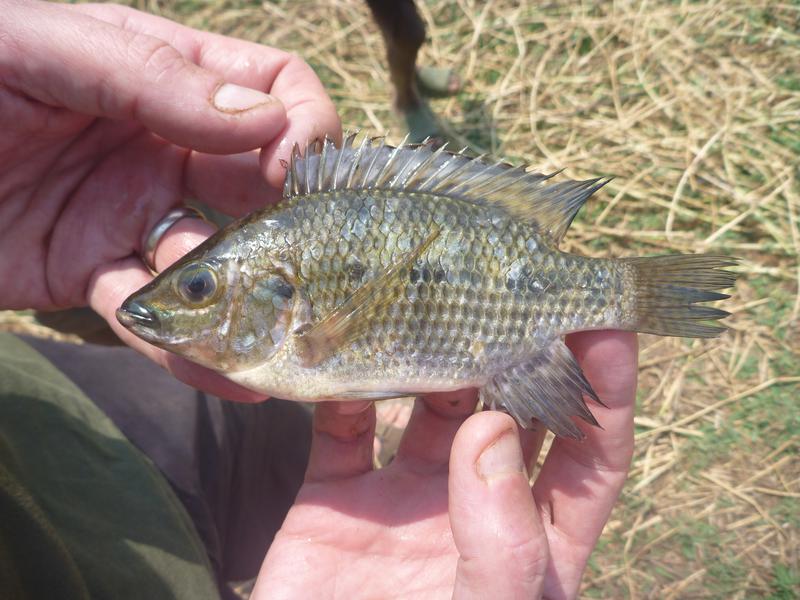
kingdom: Animalia
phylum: Chordata
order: Perciformes
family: Cichlidae
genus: Oreochromis
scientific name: Oreochromis karomo
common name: Karomo
